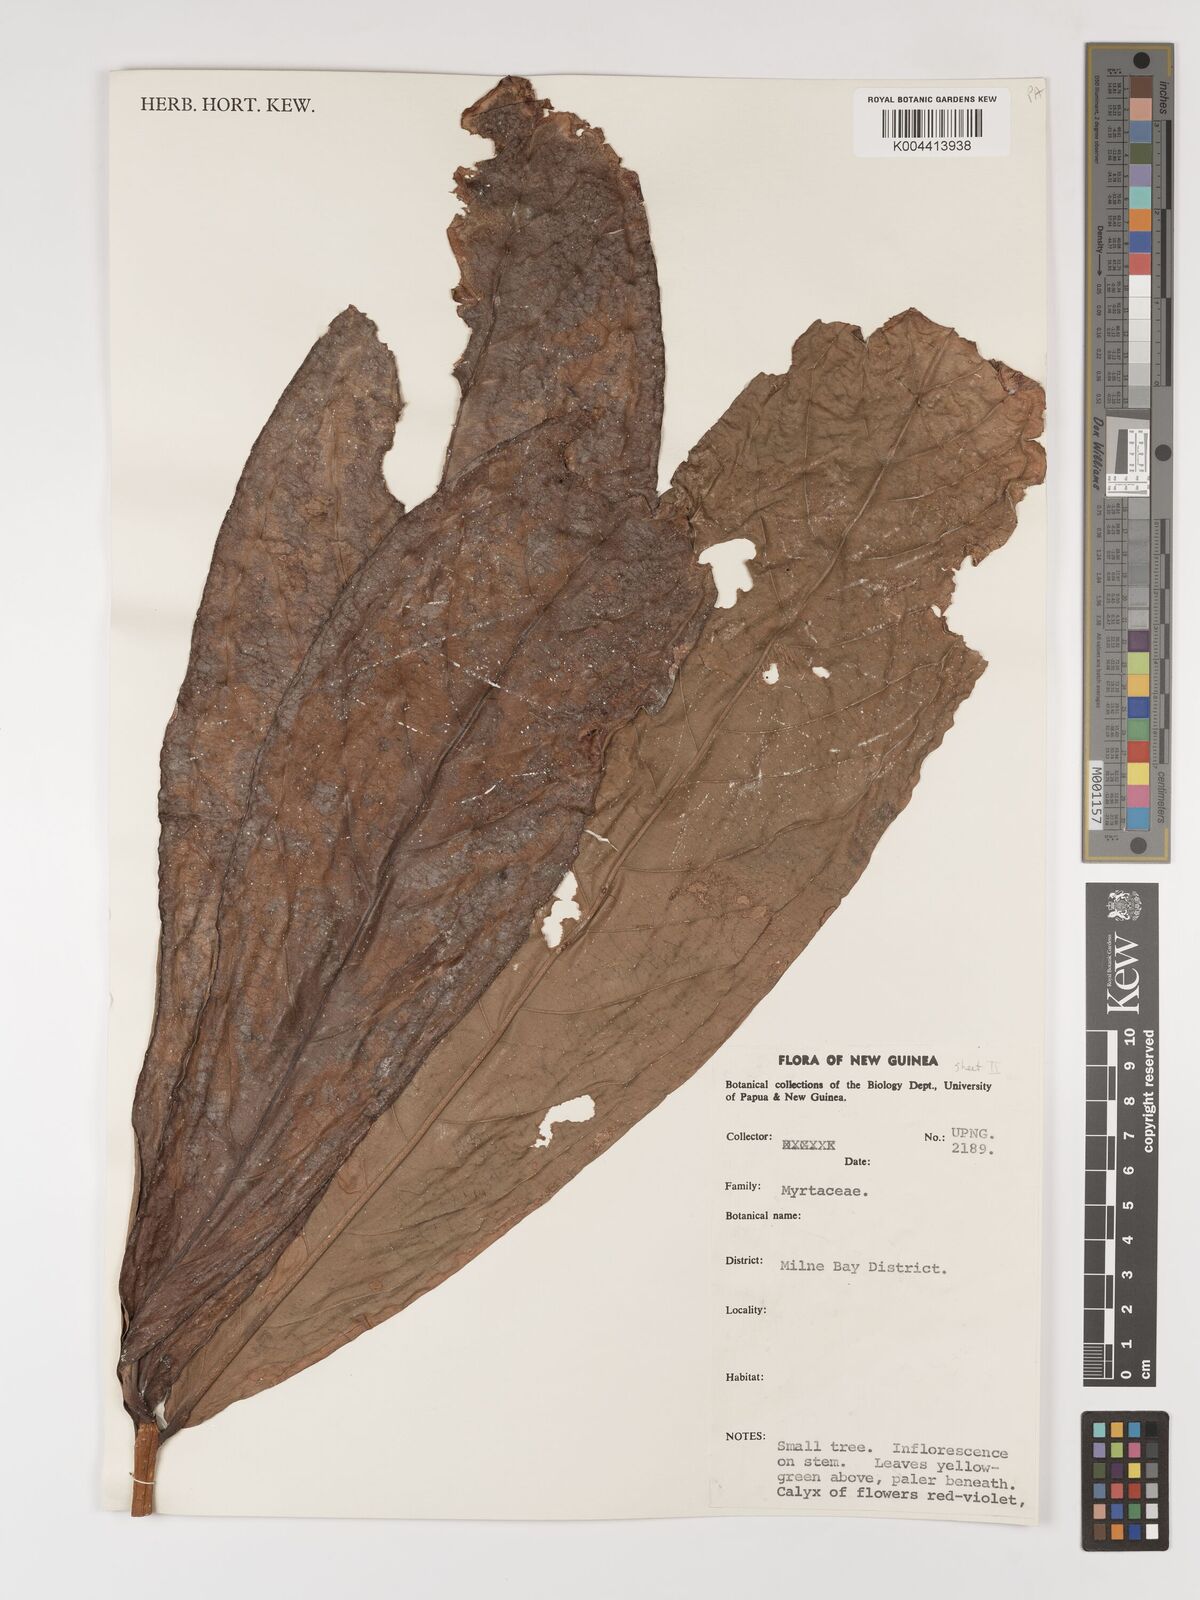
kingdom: Plantae
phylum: Tracheophyta
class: Magnoliopsida
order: Myrtales
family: Myrtaceae
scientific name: Myrtaceae
